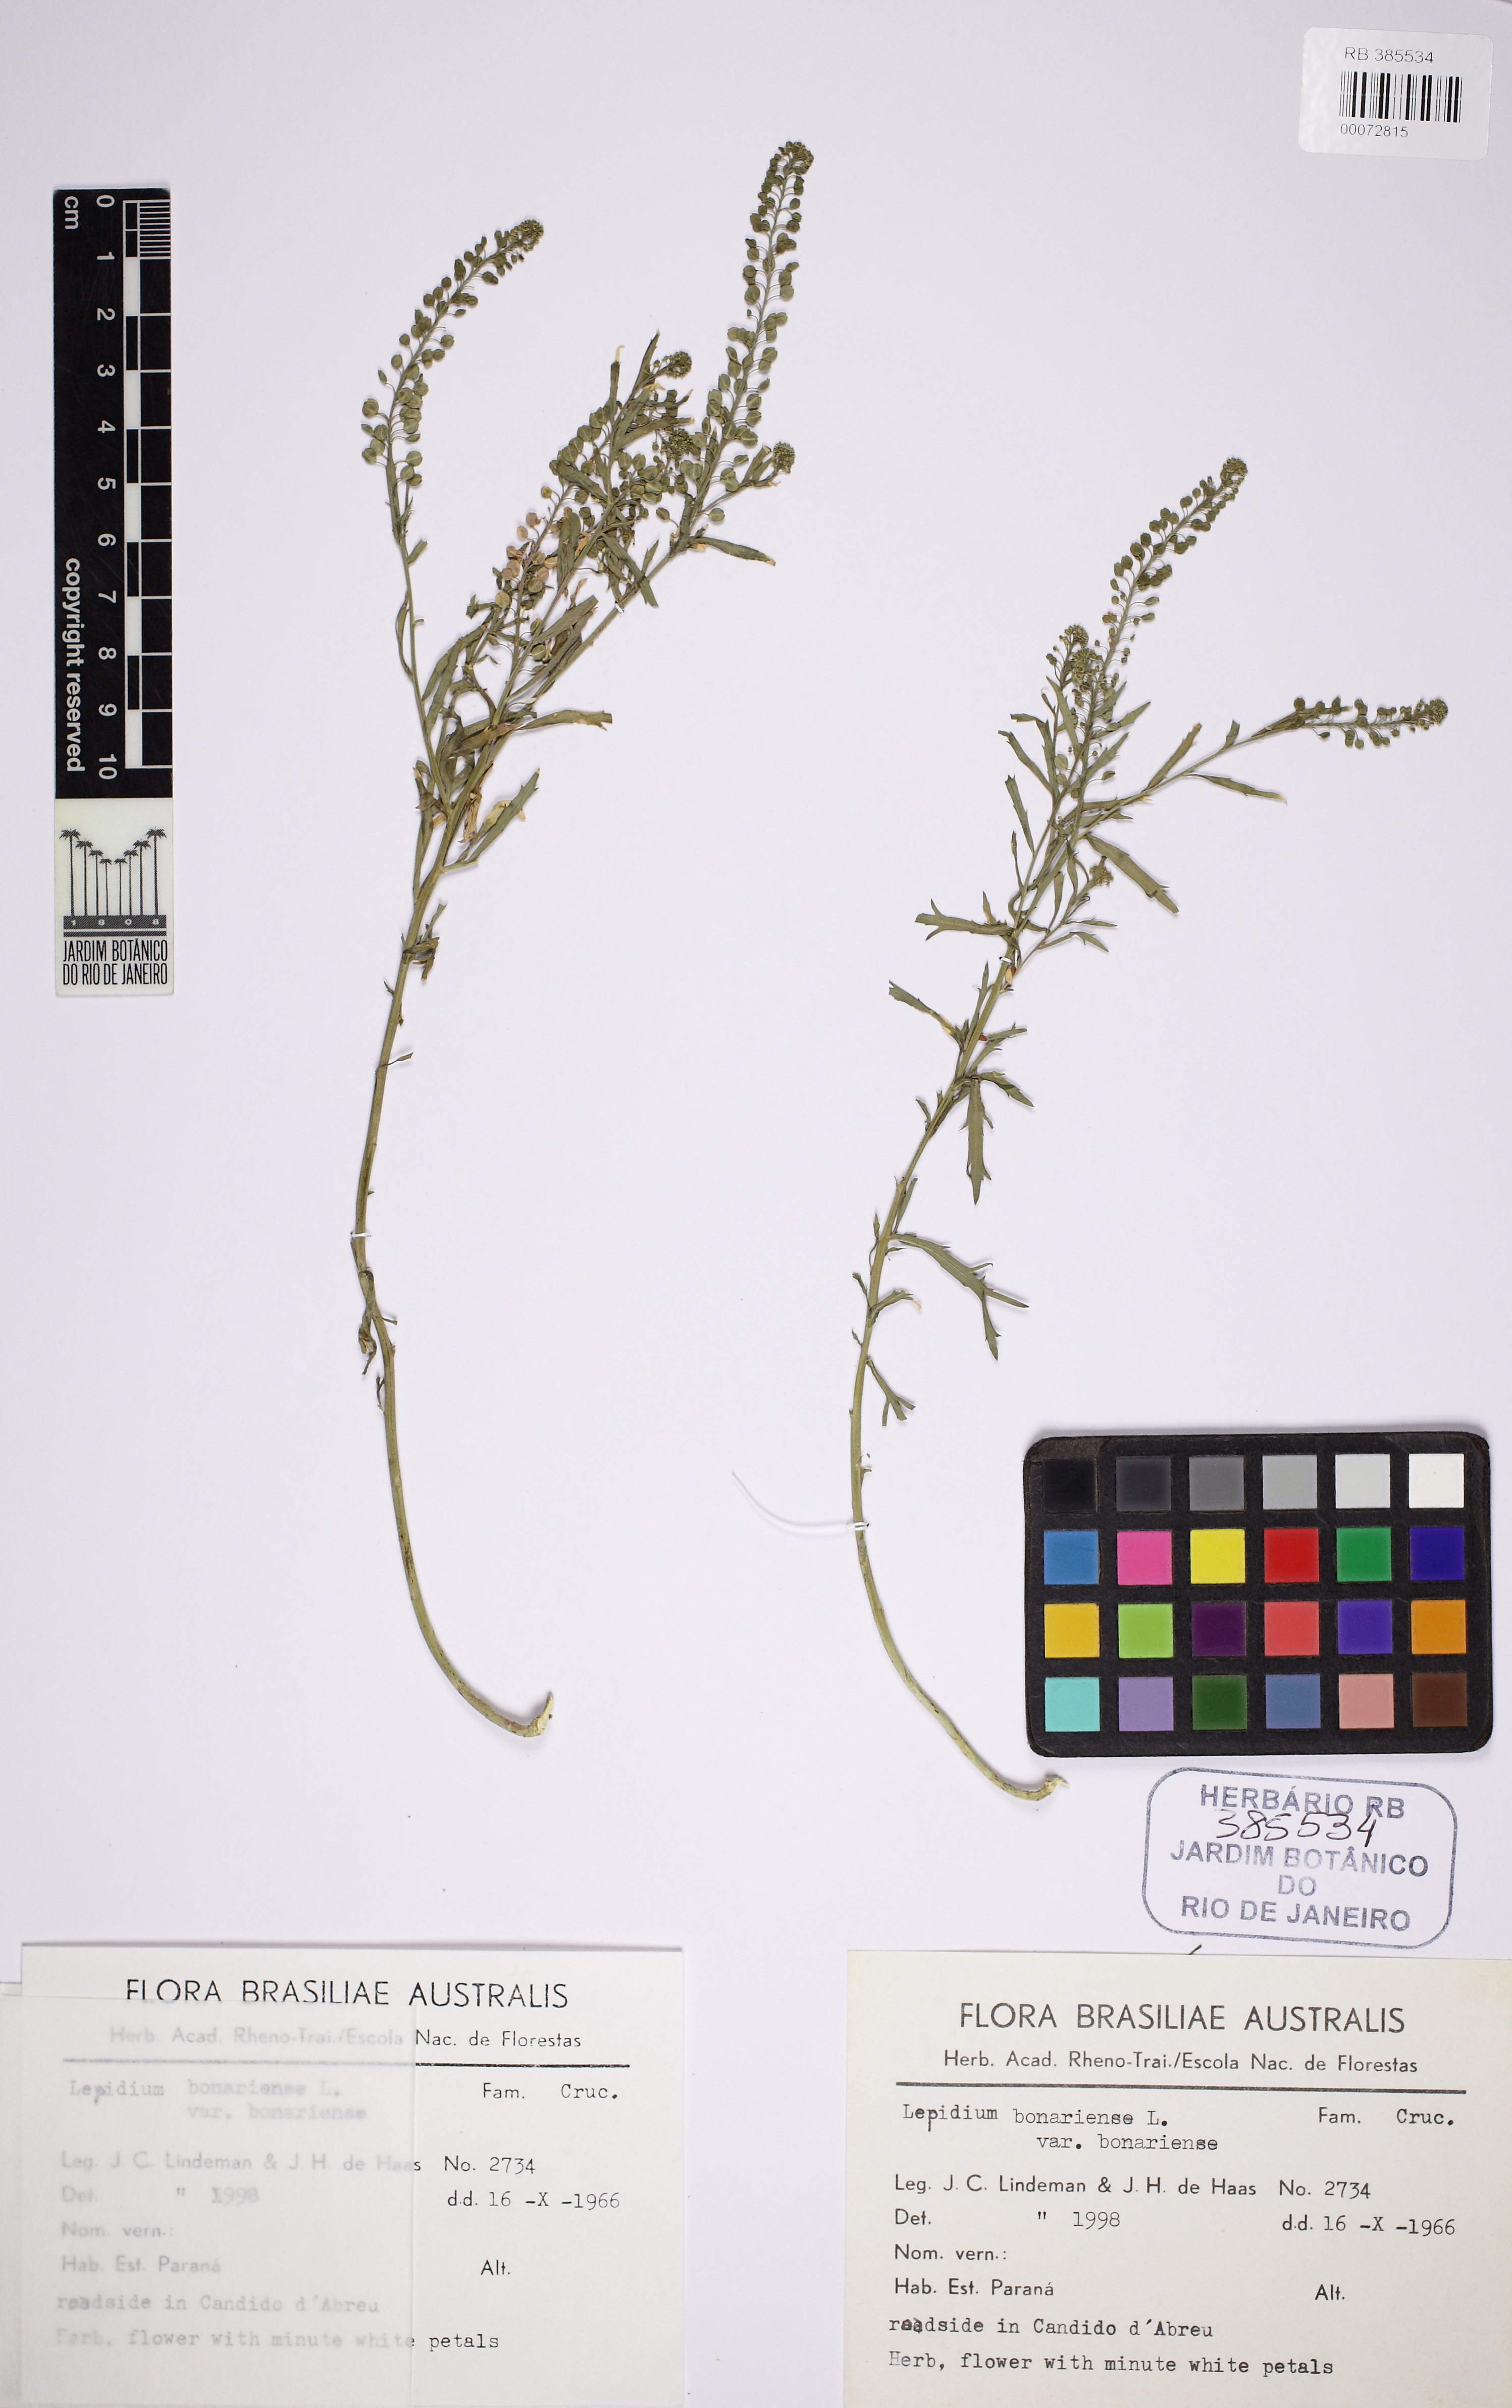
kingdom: Plantae
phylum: Tracheophyta
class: Magnoliopsida
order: Brassicales
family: Brassicaceae
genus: Lepidium
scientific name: Lepidium bonariense
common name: Argentine pepperwort
